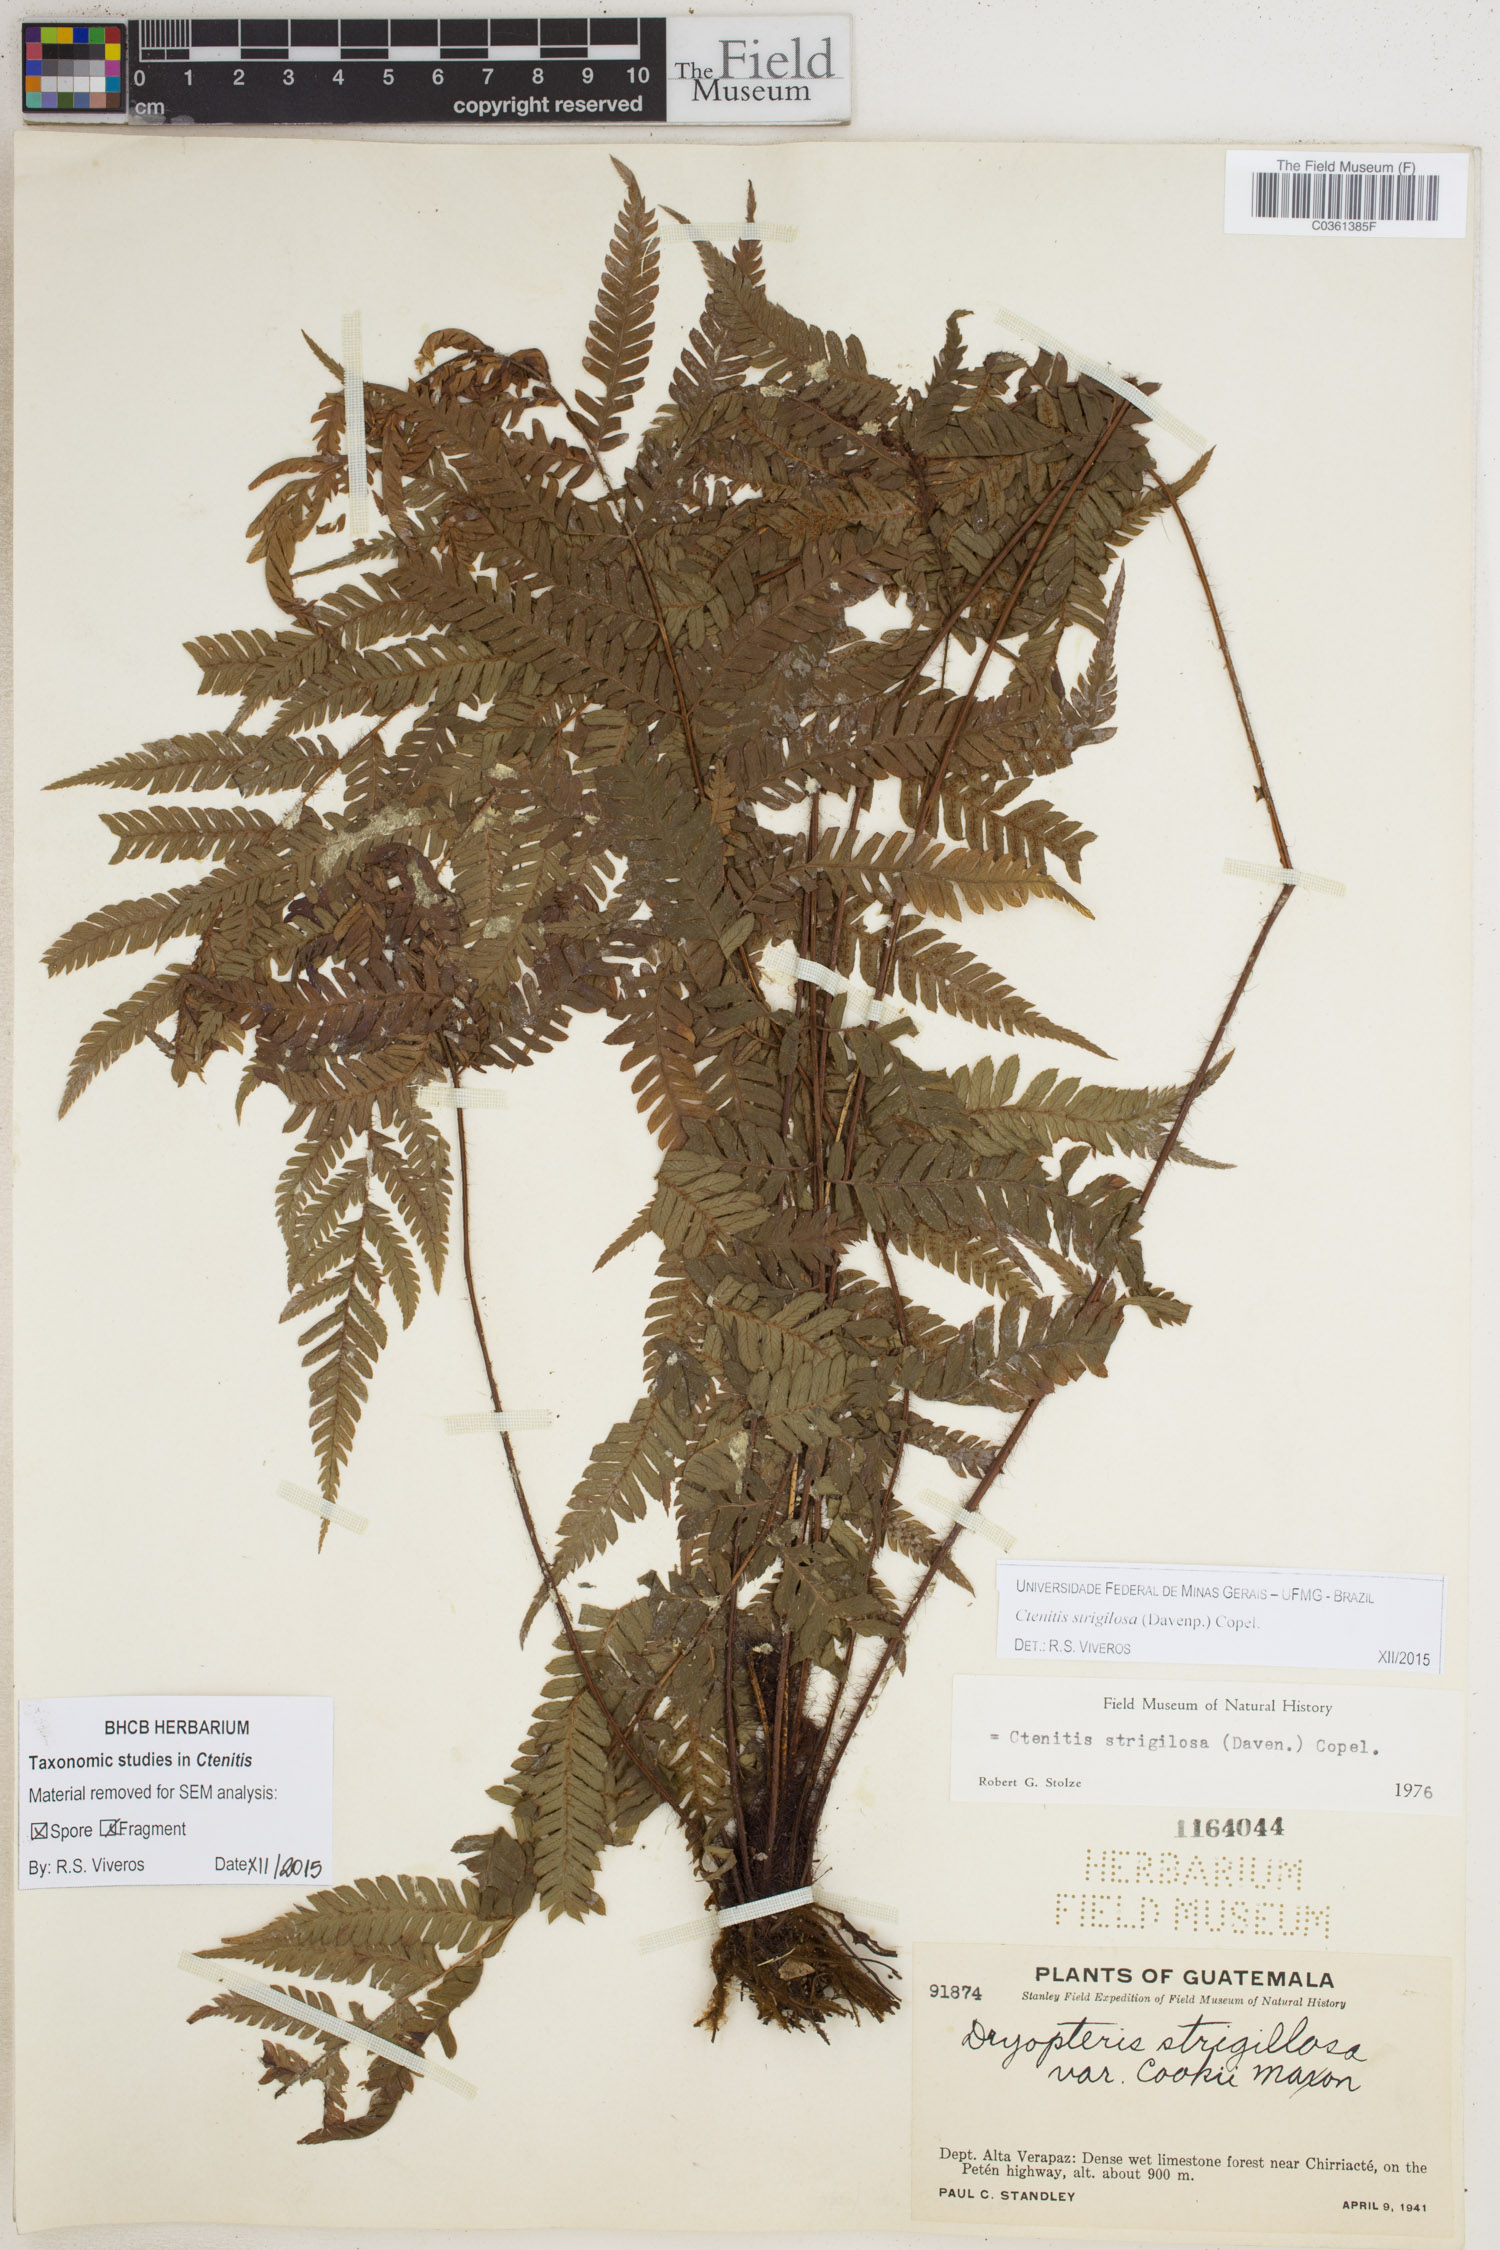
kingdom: Plantae
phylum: Tracheophyta
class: Polypodiopsida
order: Polypodiales
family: Dryopteridaceae
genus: Ctenitis
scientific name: Ctenitis strigilosa
